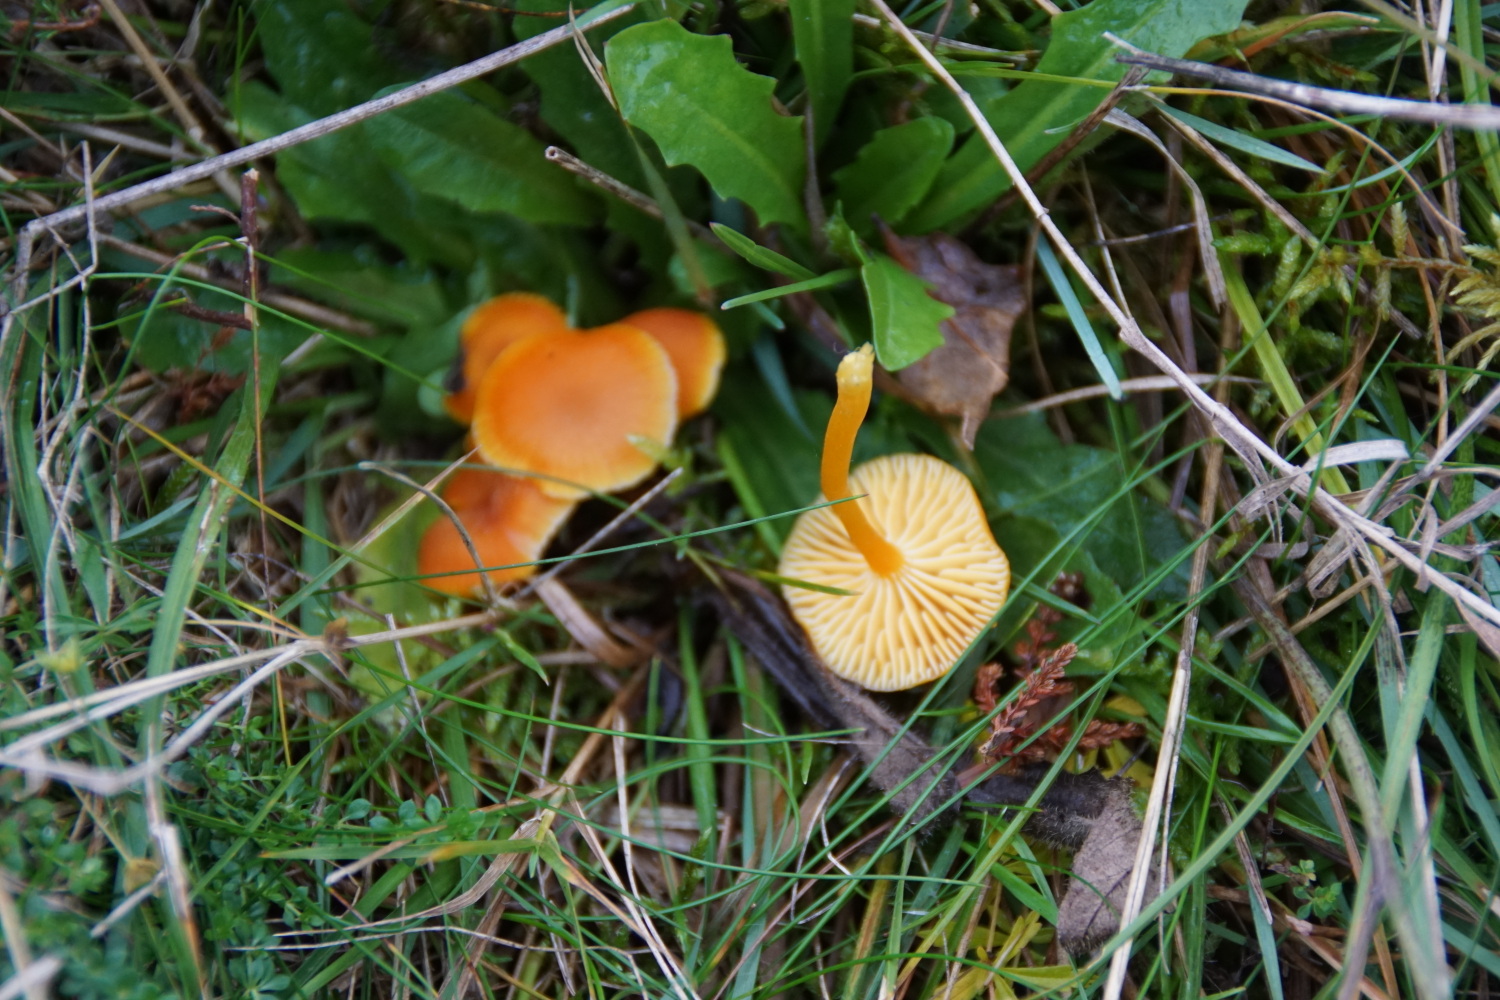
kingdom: Fungi
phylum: Basidiomycota
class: Agaricomycetes
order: Agaricales
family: Hygrophoraceae
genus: Hygrocybe
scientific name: Hygrocybe
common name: vokshat
